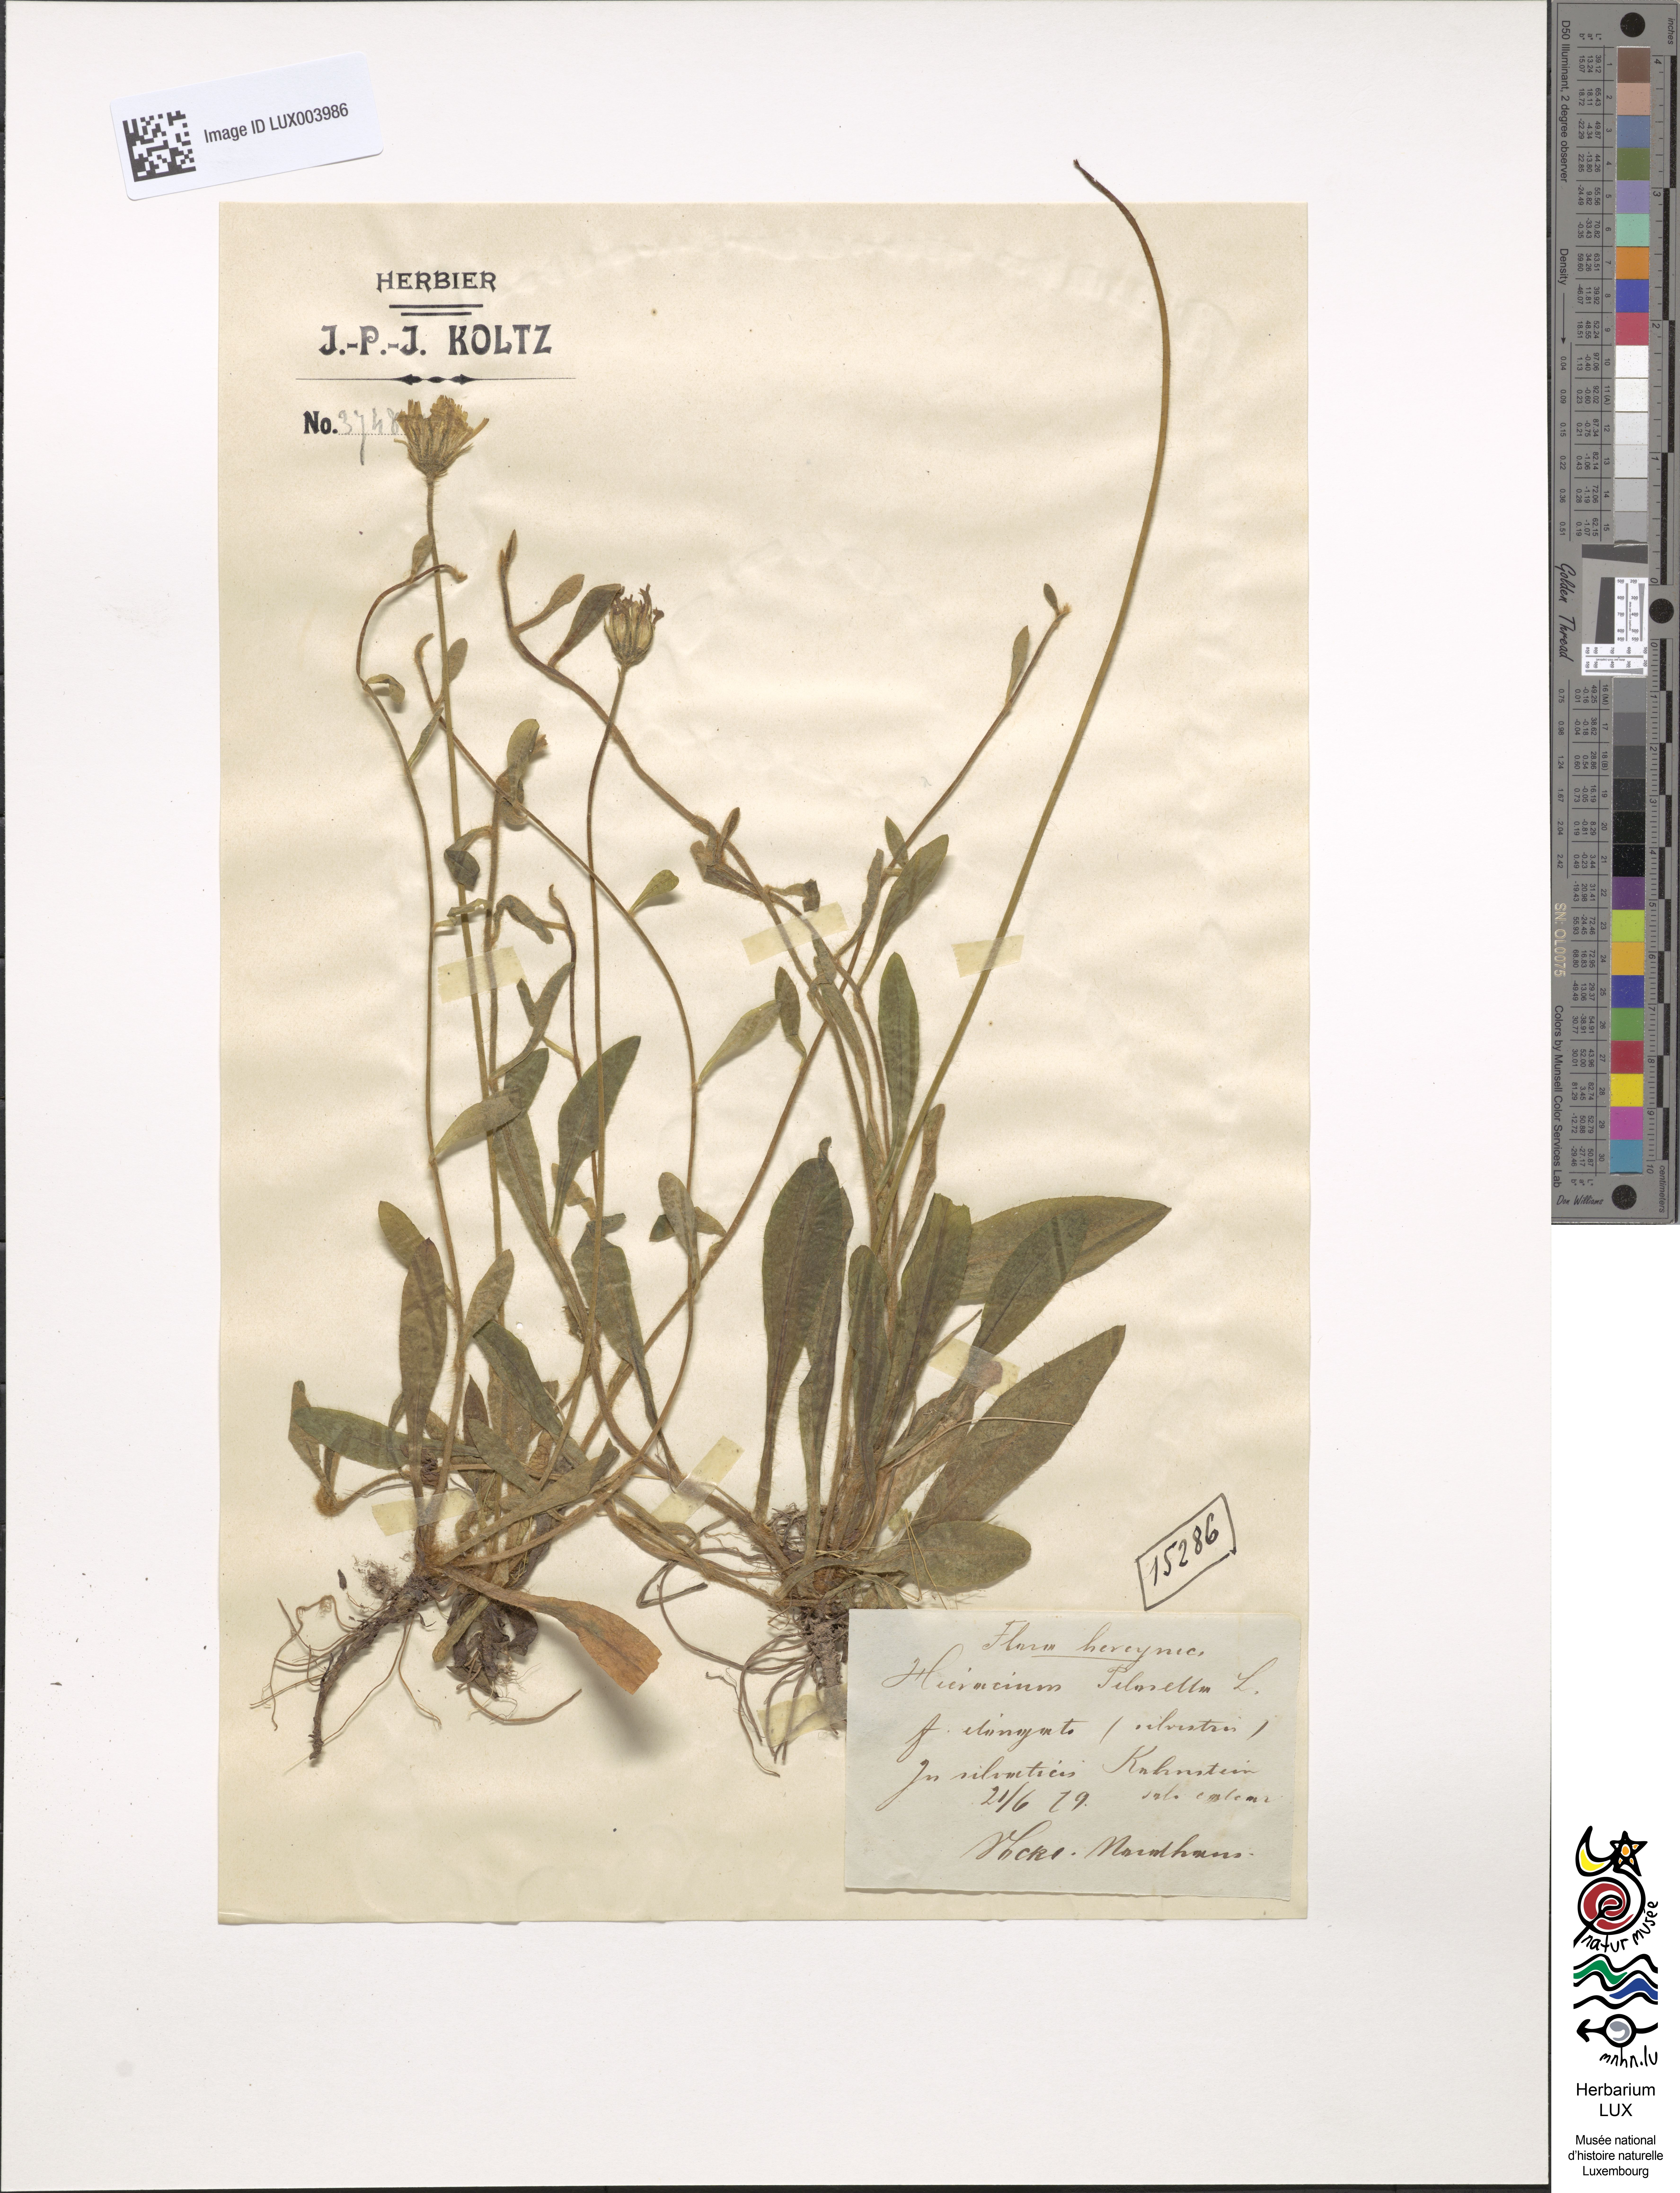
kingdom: Plantae
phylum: Tracheophyta
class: Magnoliopsida
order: Asterales
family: Asteraceae
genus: Pilosella
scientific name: Pilosella officinarum
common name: Mouse-ear hawkweed
